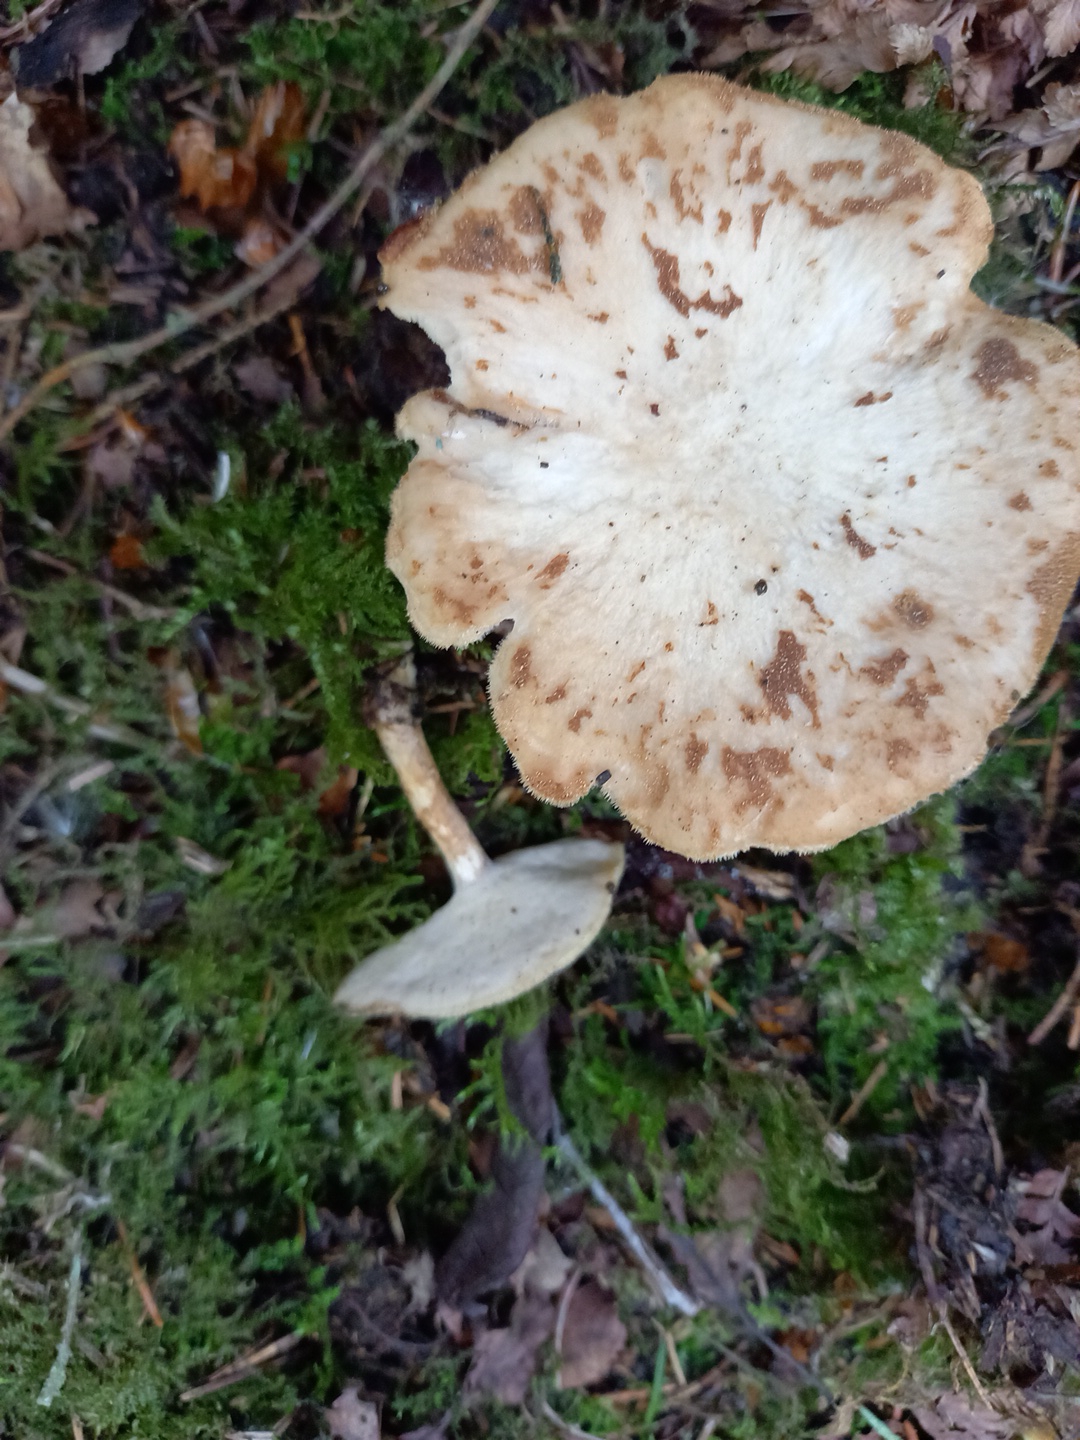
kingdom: Fungi
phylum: Basidiomycota
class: Agaricomycetes
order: Polyporales
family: Polyporaceae
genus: Lentinus
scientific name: Lentinus substrictus
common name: forårs-stilkporesvamp
